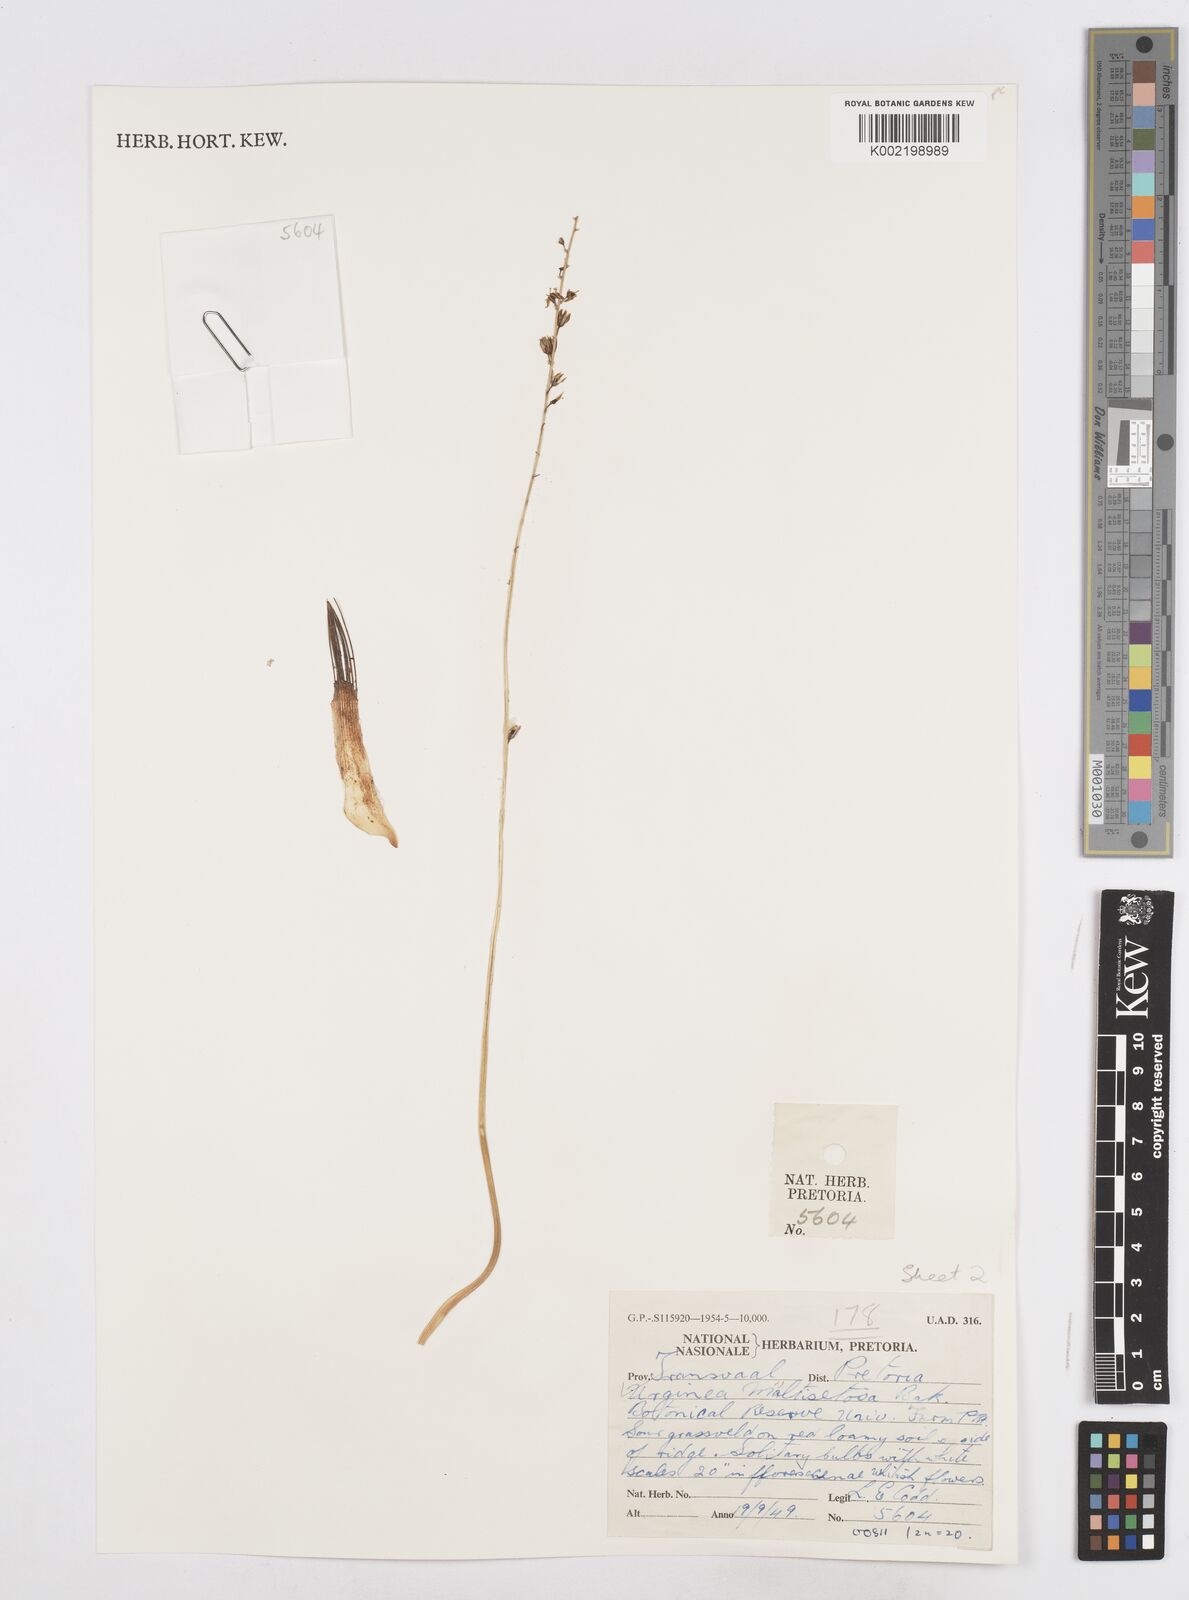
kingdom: Plantae
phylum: Tracheophyta
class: Liliopsida
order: Asparagales
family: Asparagaceae
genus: Drimia
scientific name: Drimia multisetosa
